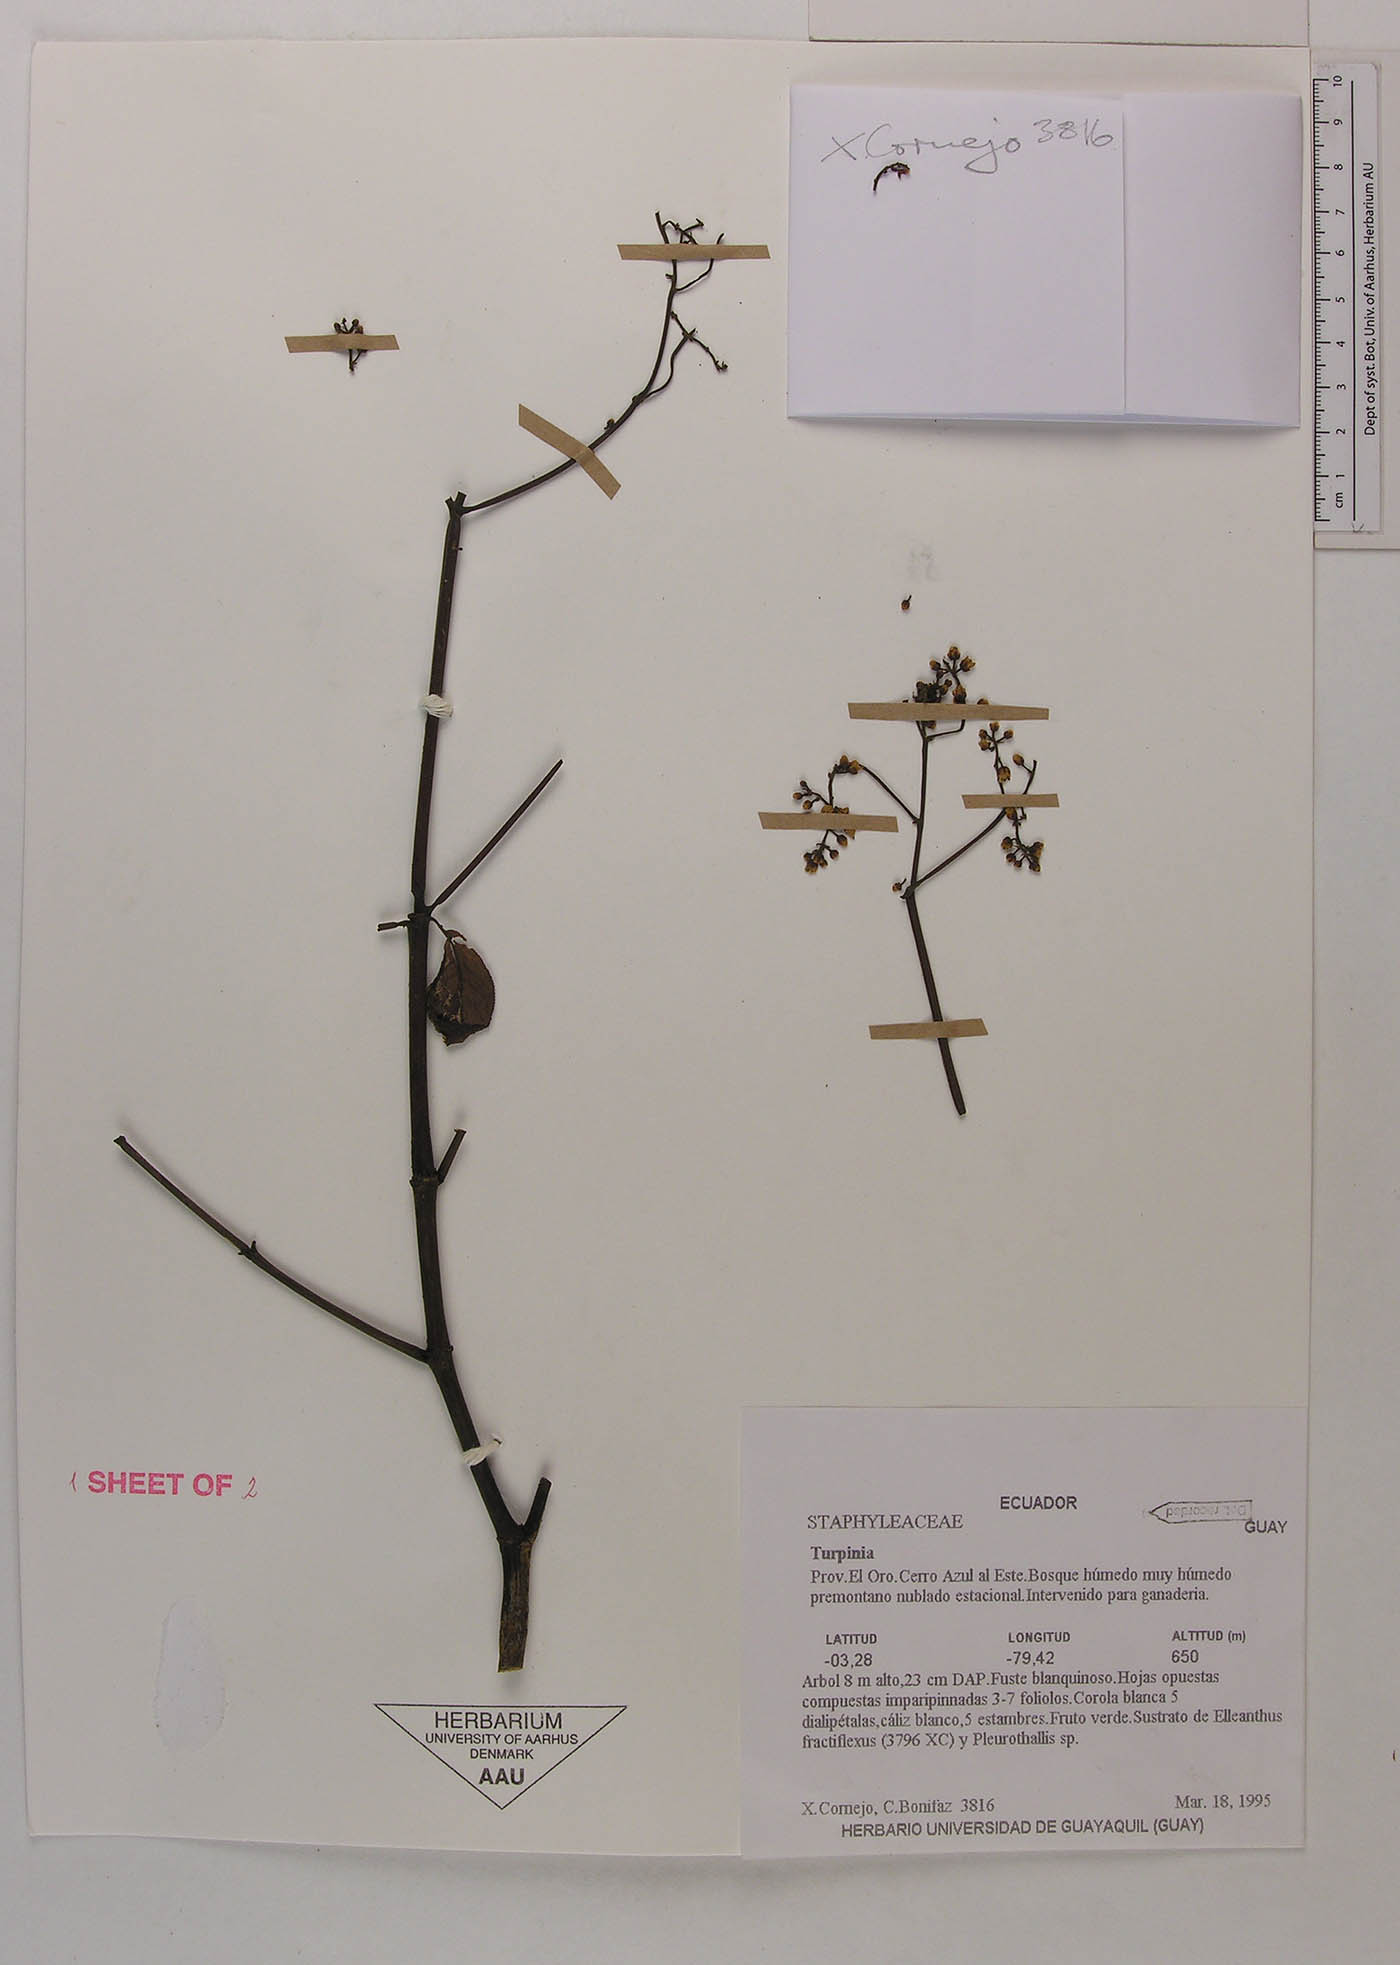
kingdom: Plantae
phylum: Tracheophyta
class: Magnoliopsida
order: Crossosomatales
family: Staphyleaceae
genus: Turpinia
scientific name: Turpinia megaphylla
